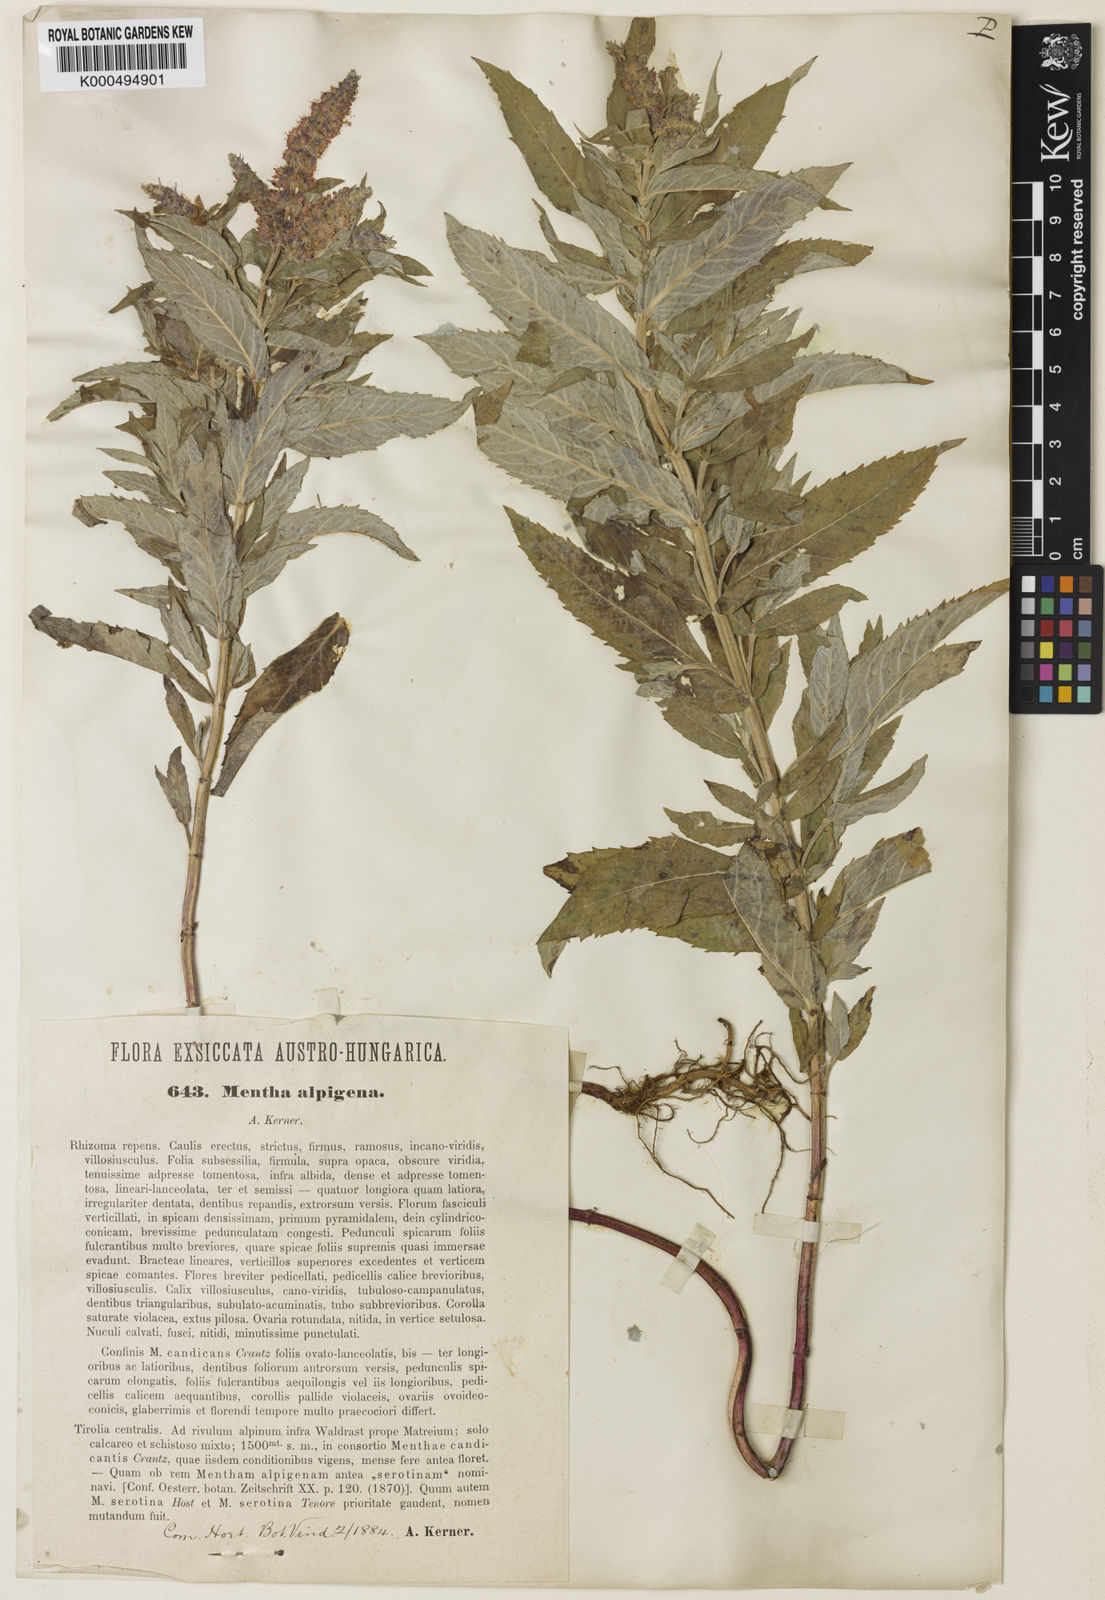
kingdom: Plantae
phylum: Tracheophyta
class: Magnoliopsida
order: Lamiales
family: Lamiaceae
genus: Mentha
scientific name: Mentha
